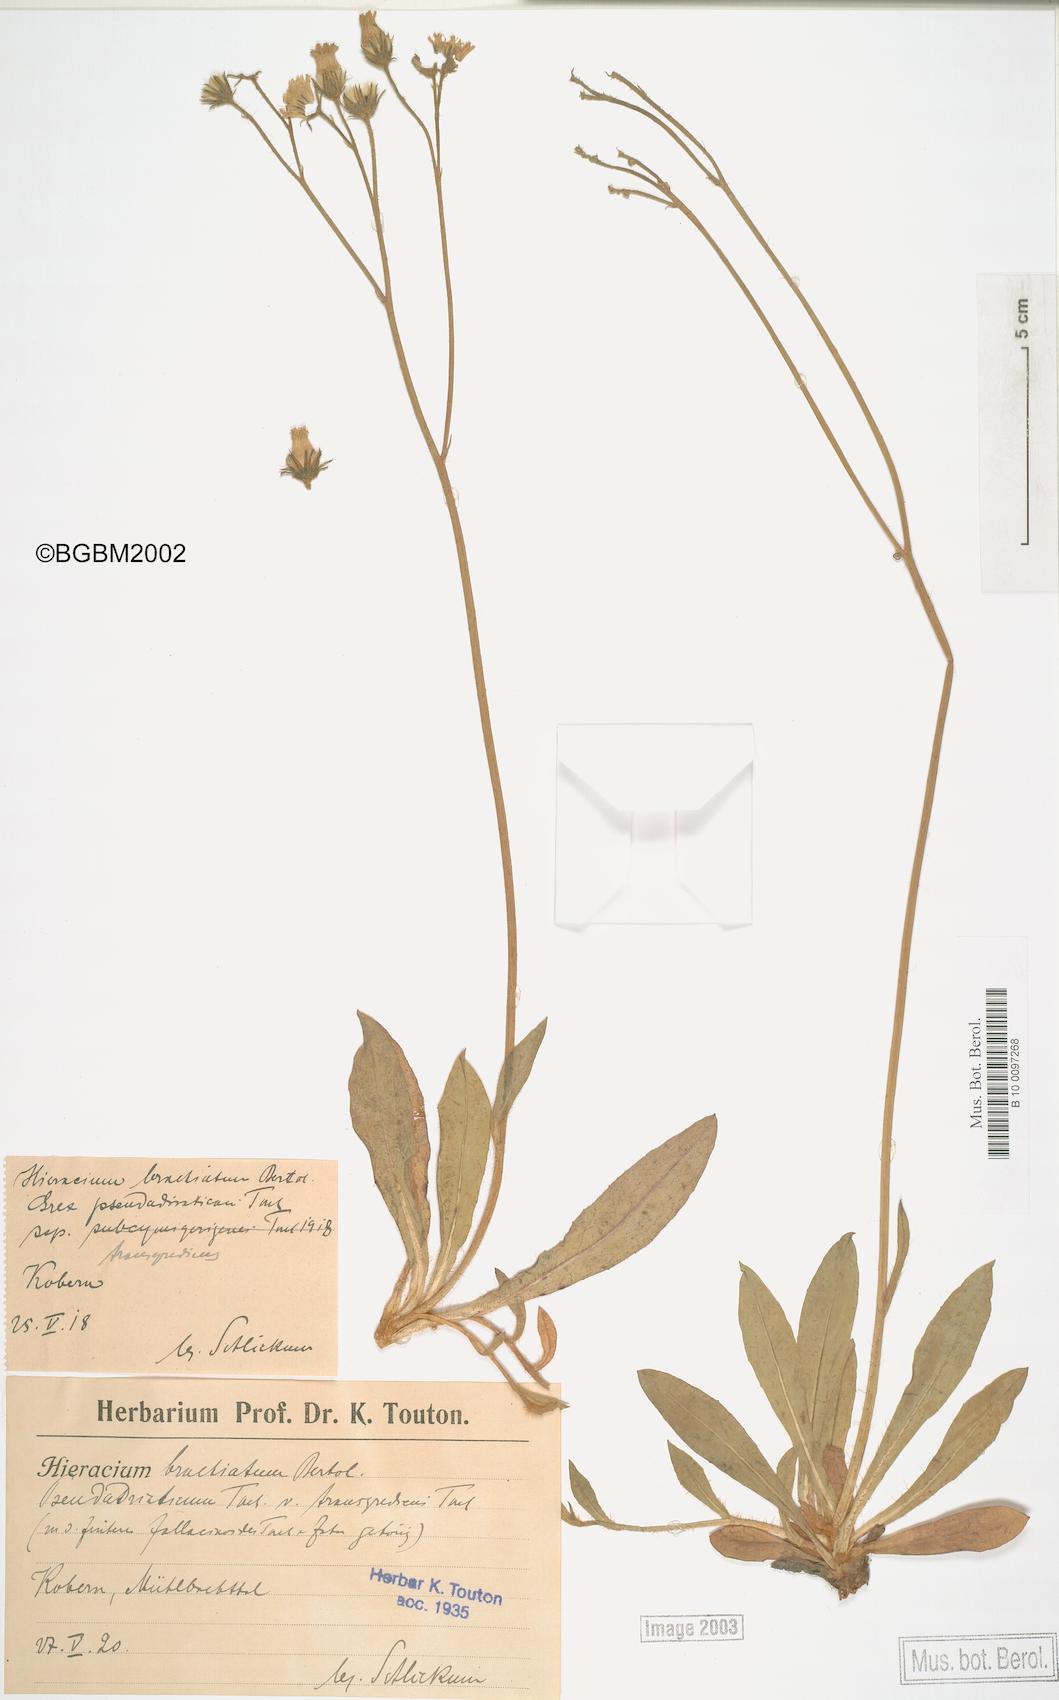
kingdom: Plantae
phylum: Tracheophyta
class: Magnoliopsida
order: Asterales
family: Asteraceae
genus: Pilosella
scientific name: Pilosella acutifolia
